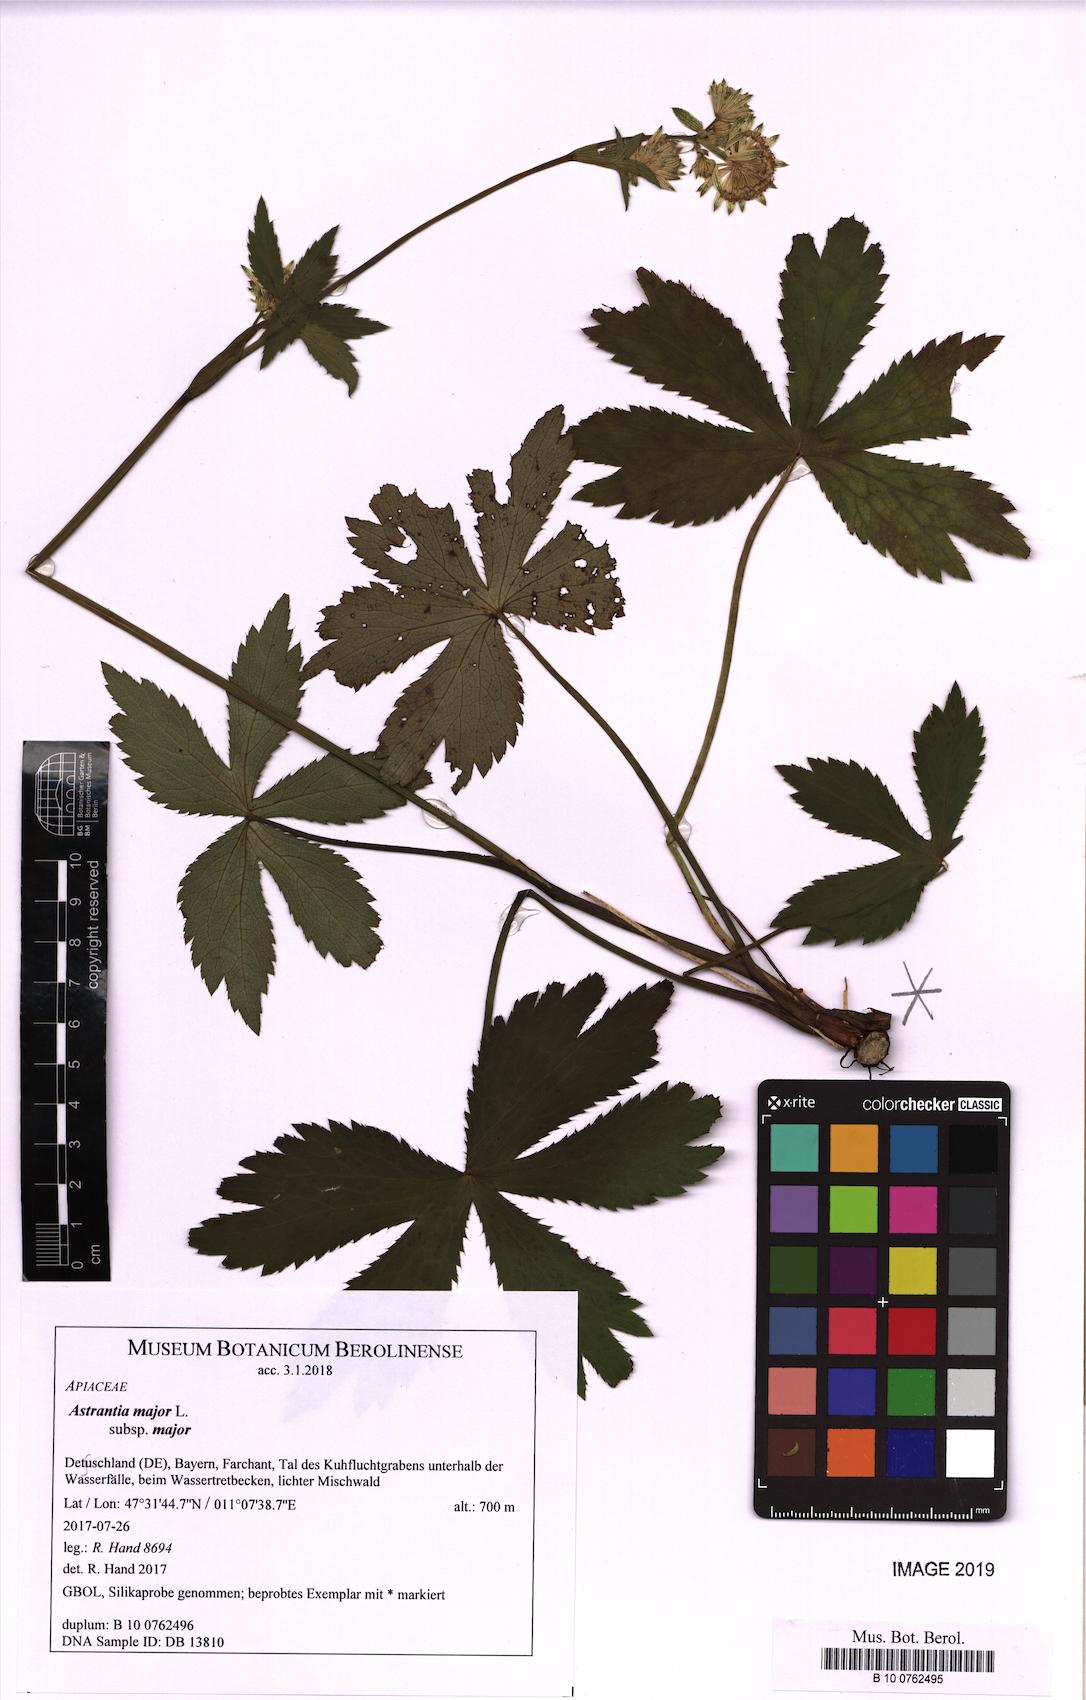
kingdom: Plantae
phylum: Tracheophyta
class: Magnoliopsida
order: Apiales
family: Apiaceae
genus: Astrantia
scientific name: Astrantia major
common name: Greater masterwort
